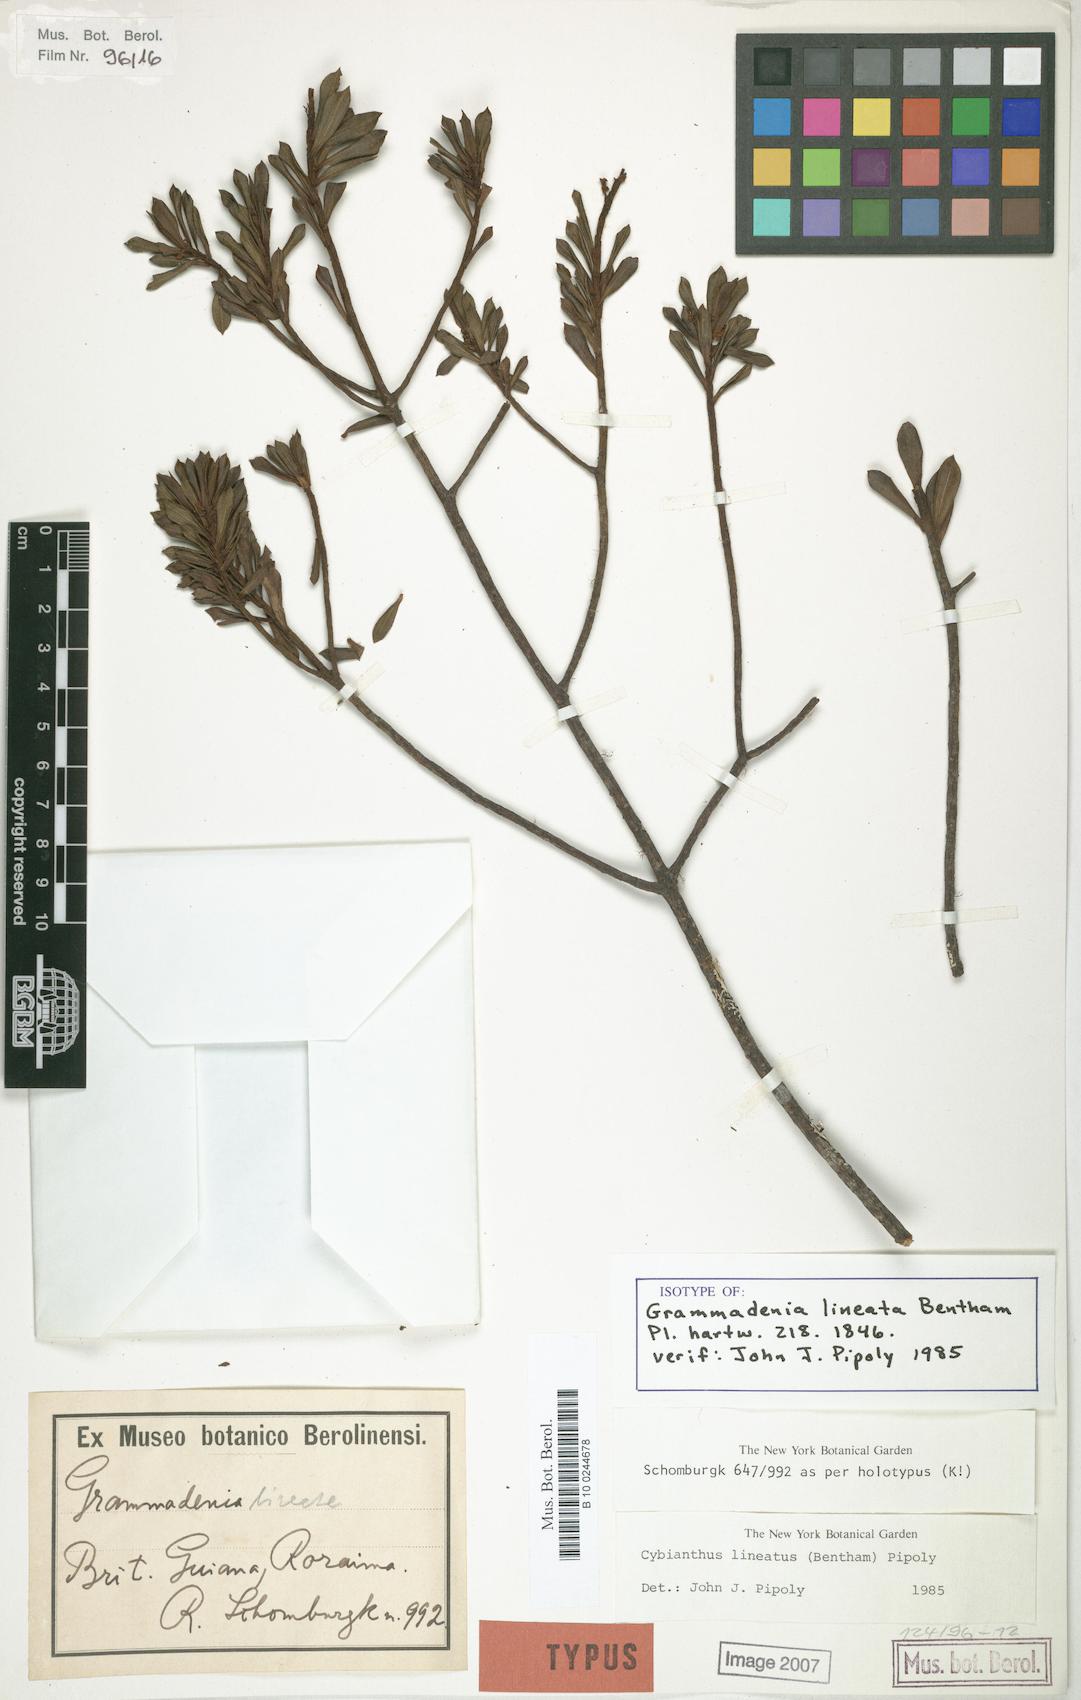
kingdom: Plantae
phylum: Tracheophyta
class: Magnoliopsida
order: Ericales
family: Primulaceae
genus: Cybianthus
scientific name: Cybianthus lineatus
